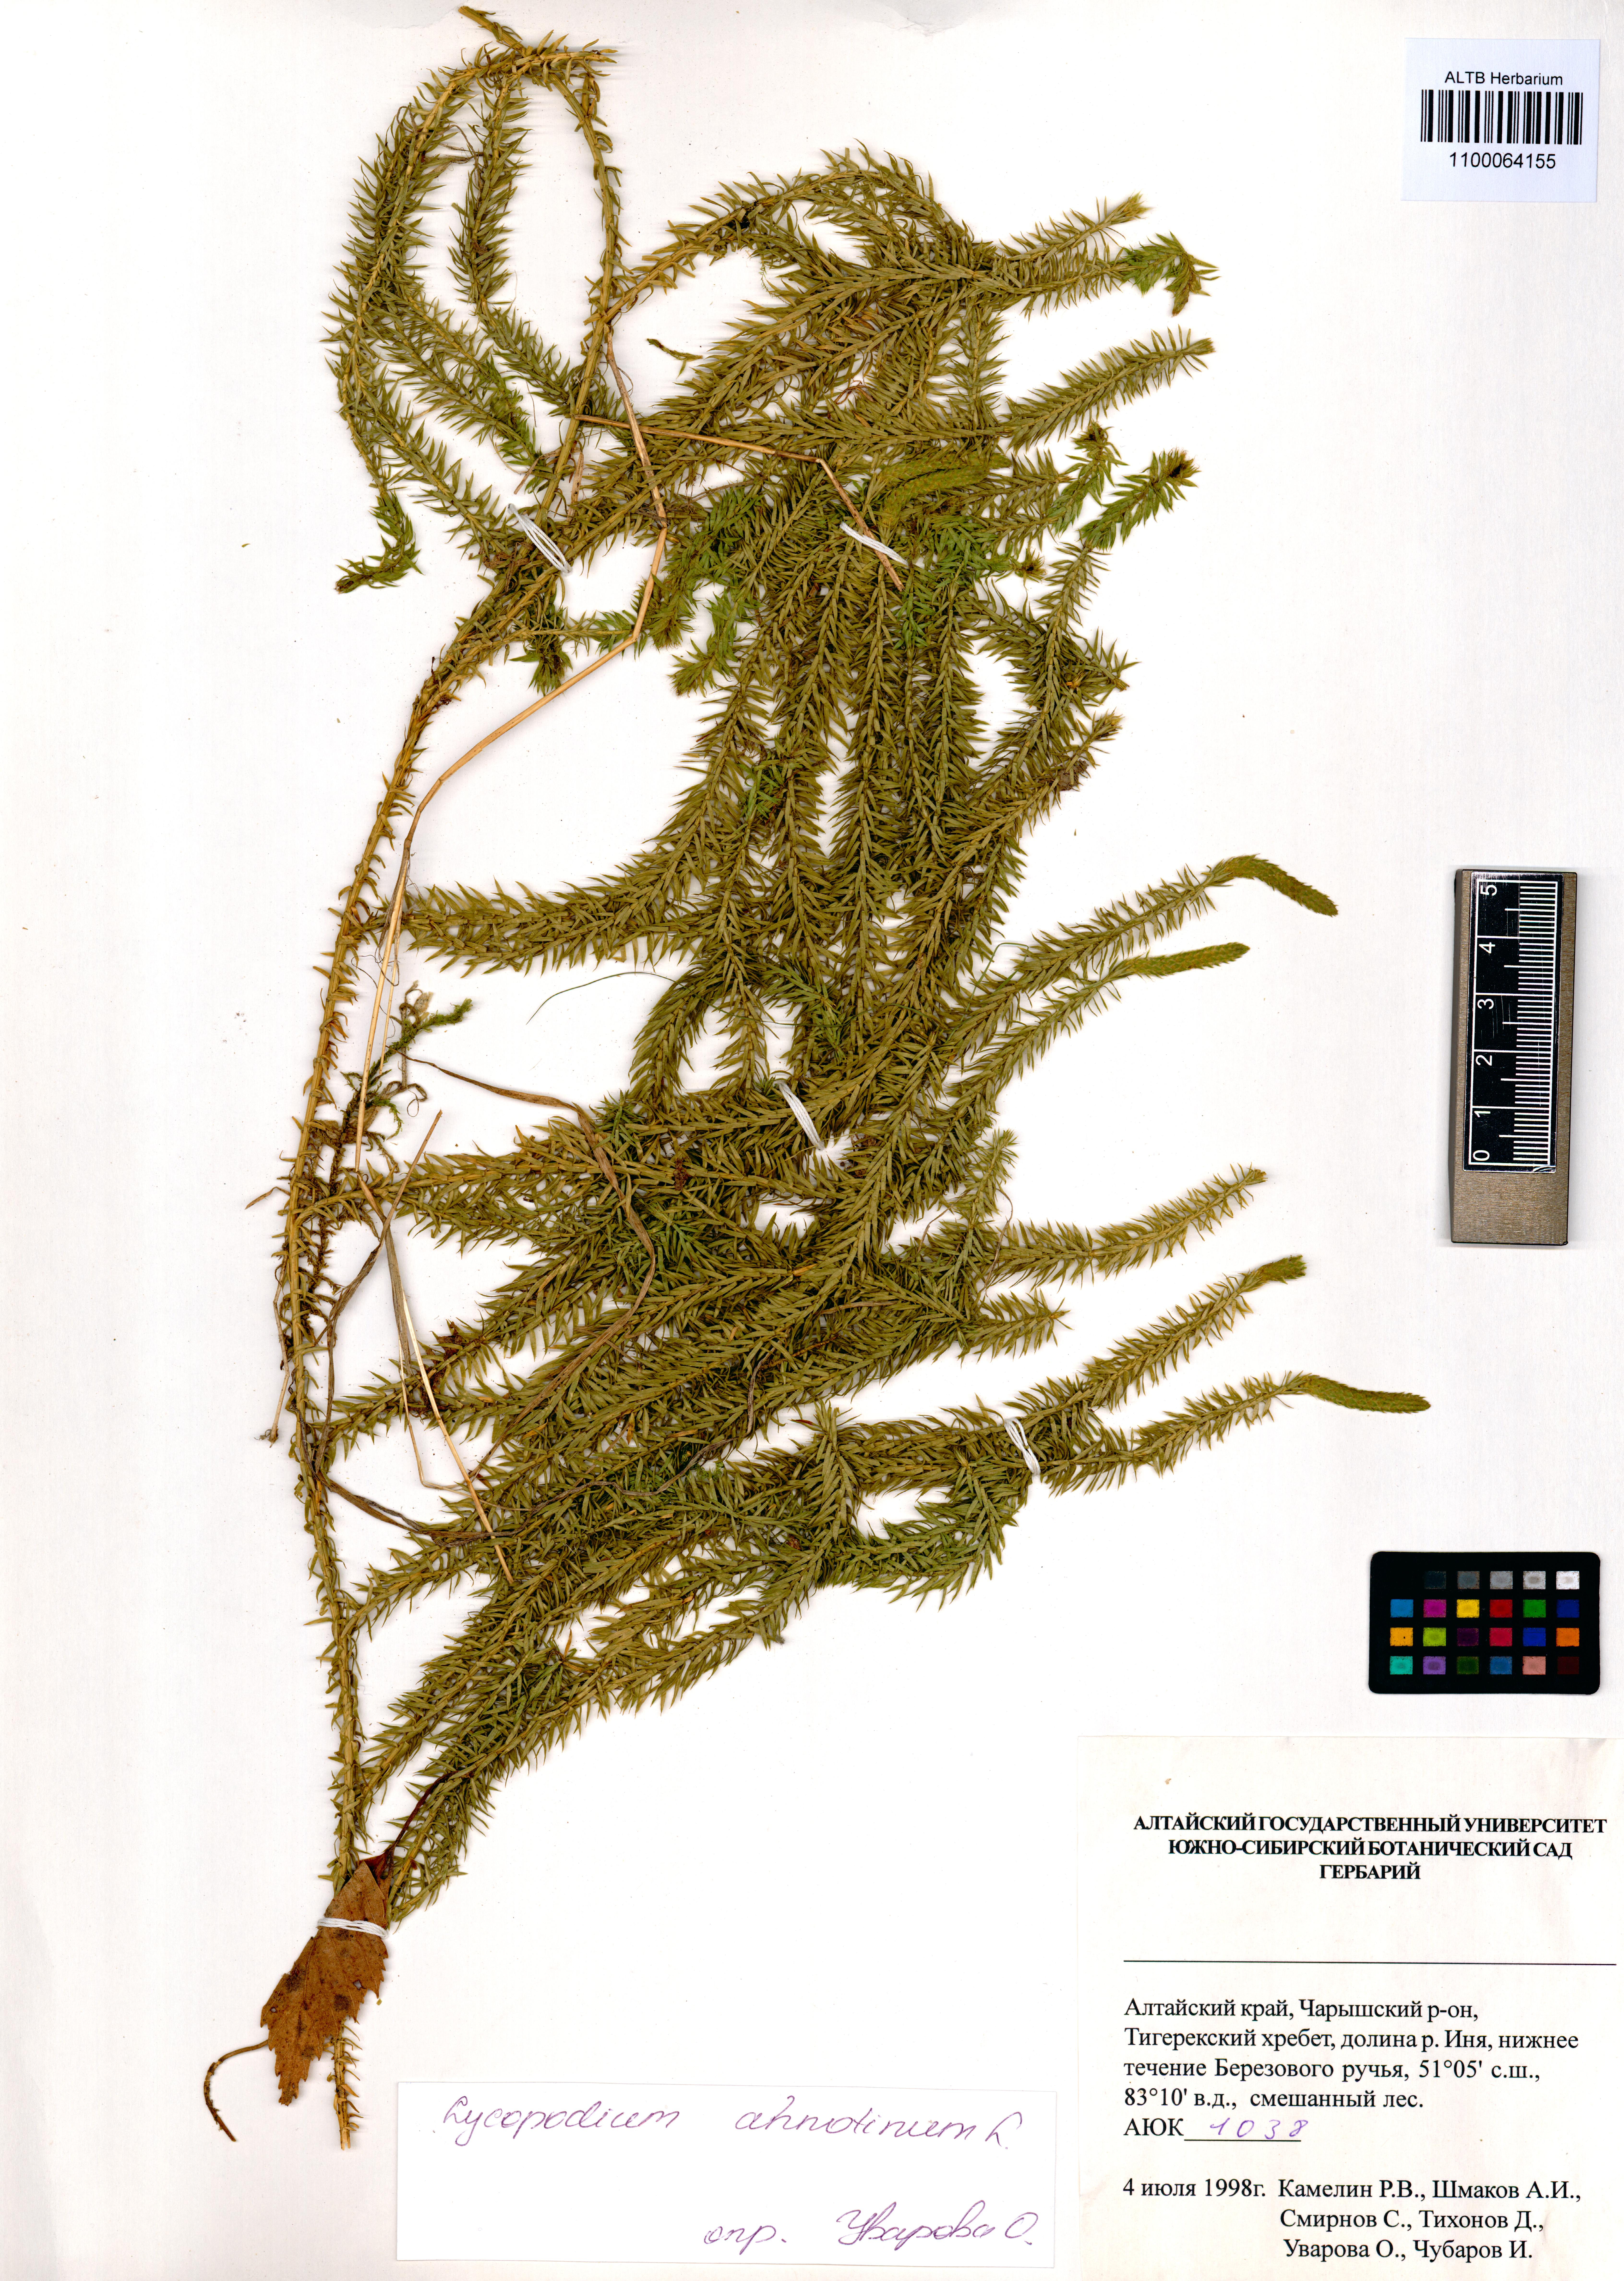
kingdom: Plantae
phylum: Tracheophyta
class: Lycopodiopsida
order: Lycopodiales
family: Lycopodiaceae
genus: Spinulum
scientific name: Spinulum annotinum
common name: Interrupted club-moss
